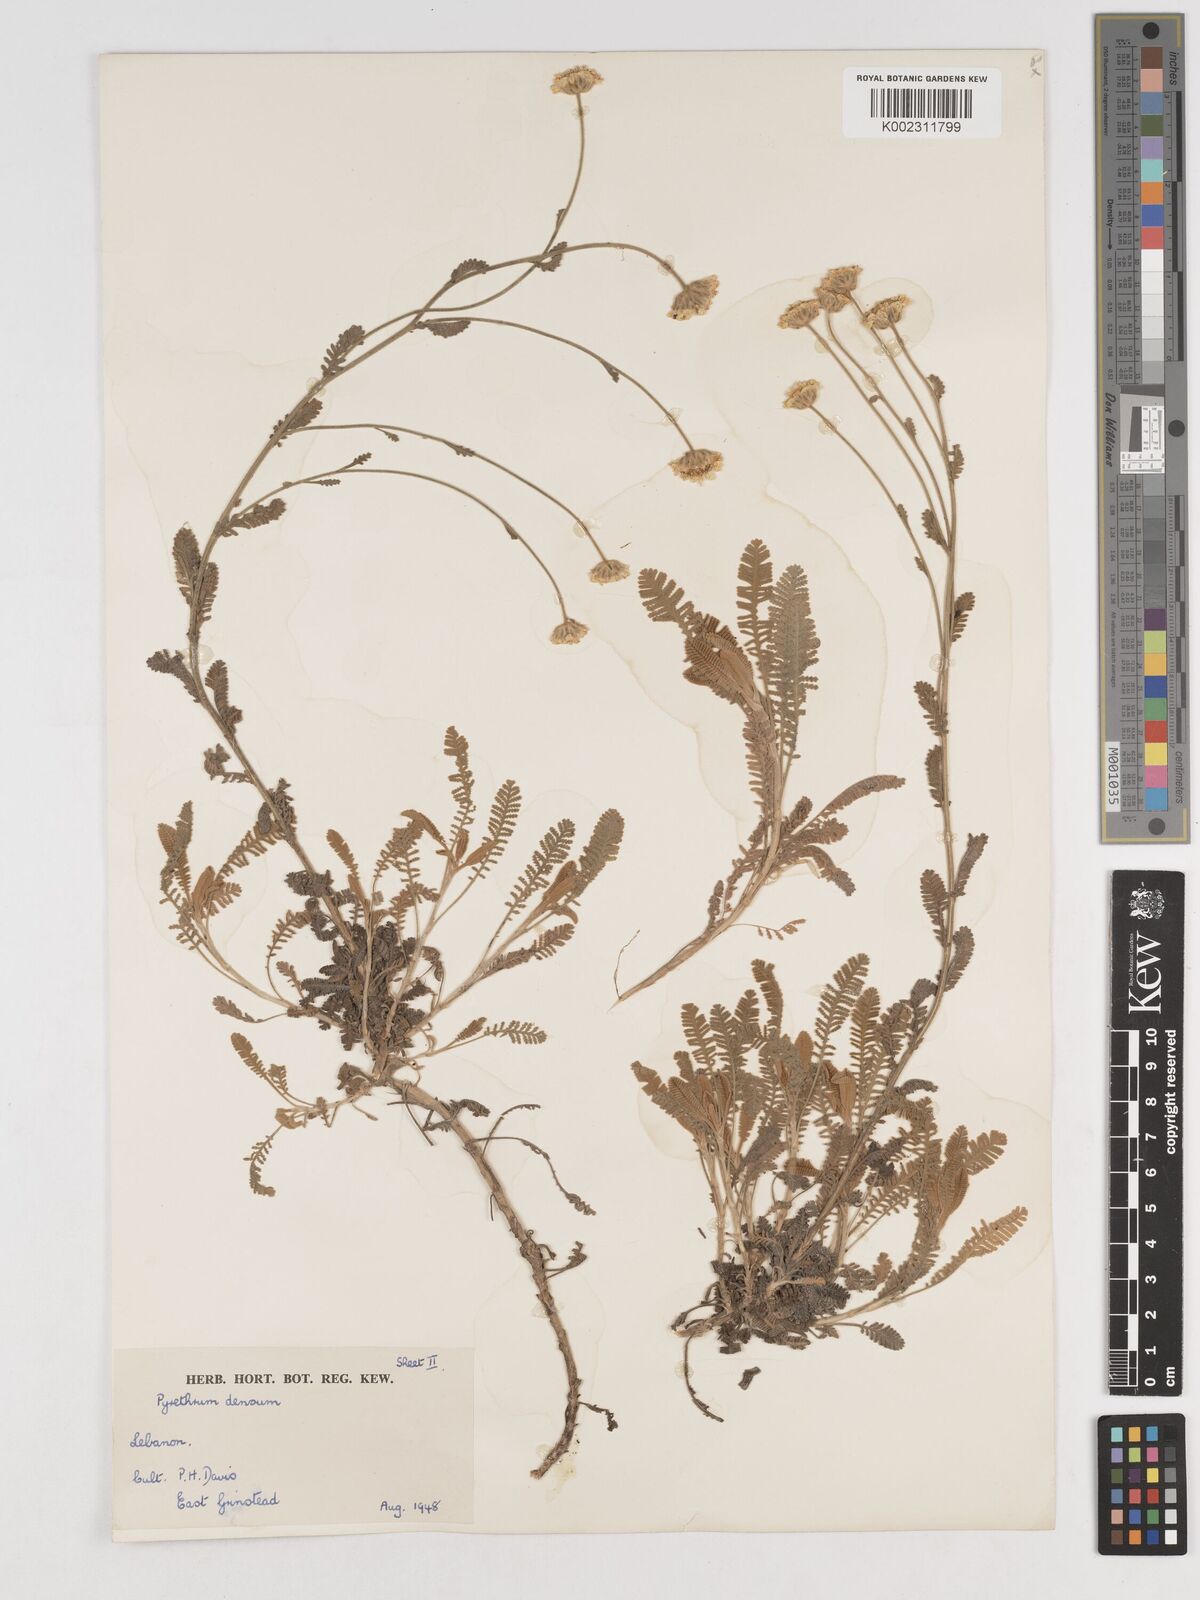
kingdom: Plantae
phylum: Tracheophyta
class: Magnoliopsida
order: Asterales
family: Asteraceae
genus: Tanacetum
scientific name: Tanacetum densum
